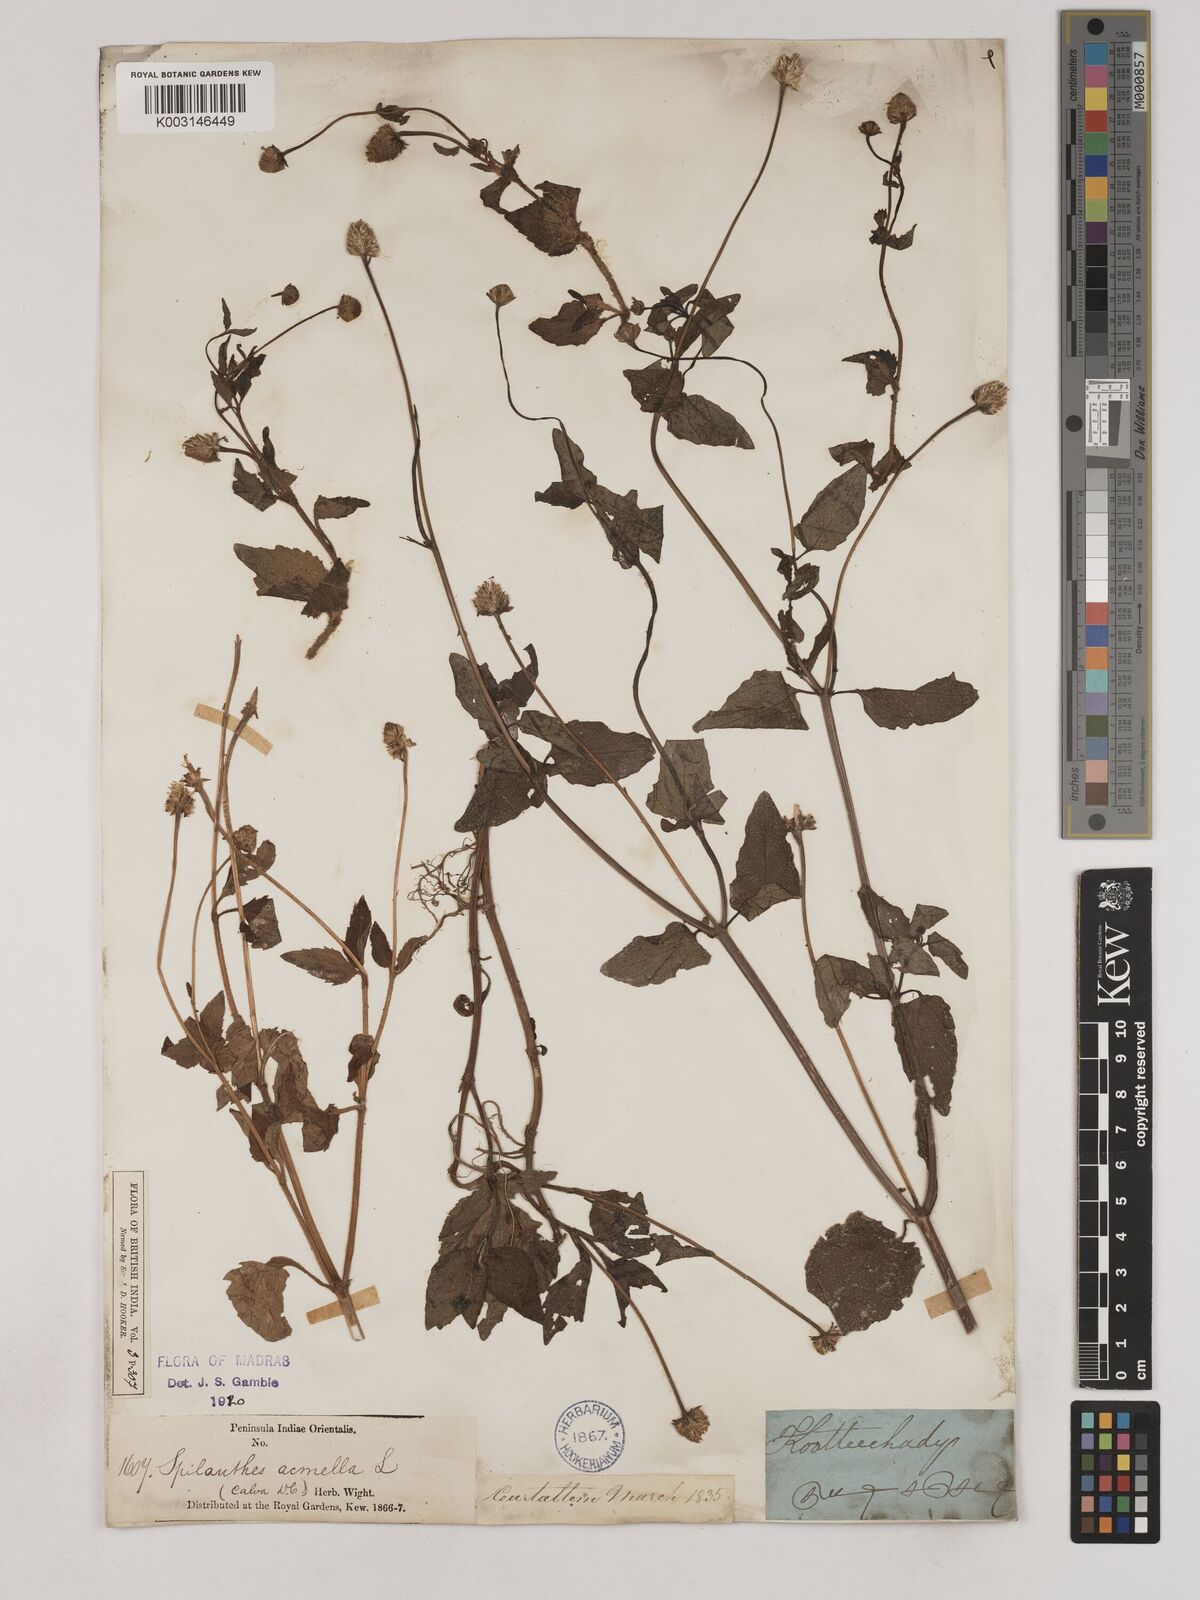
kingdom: Plantae
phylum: Tracheophyta
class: Magnoliopsida
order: Asterales
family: Asteraceae
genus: Acmella
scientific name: Acmella paniculata
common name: Panicled spot flower
